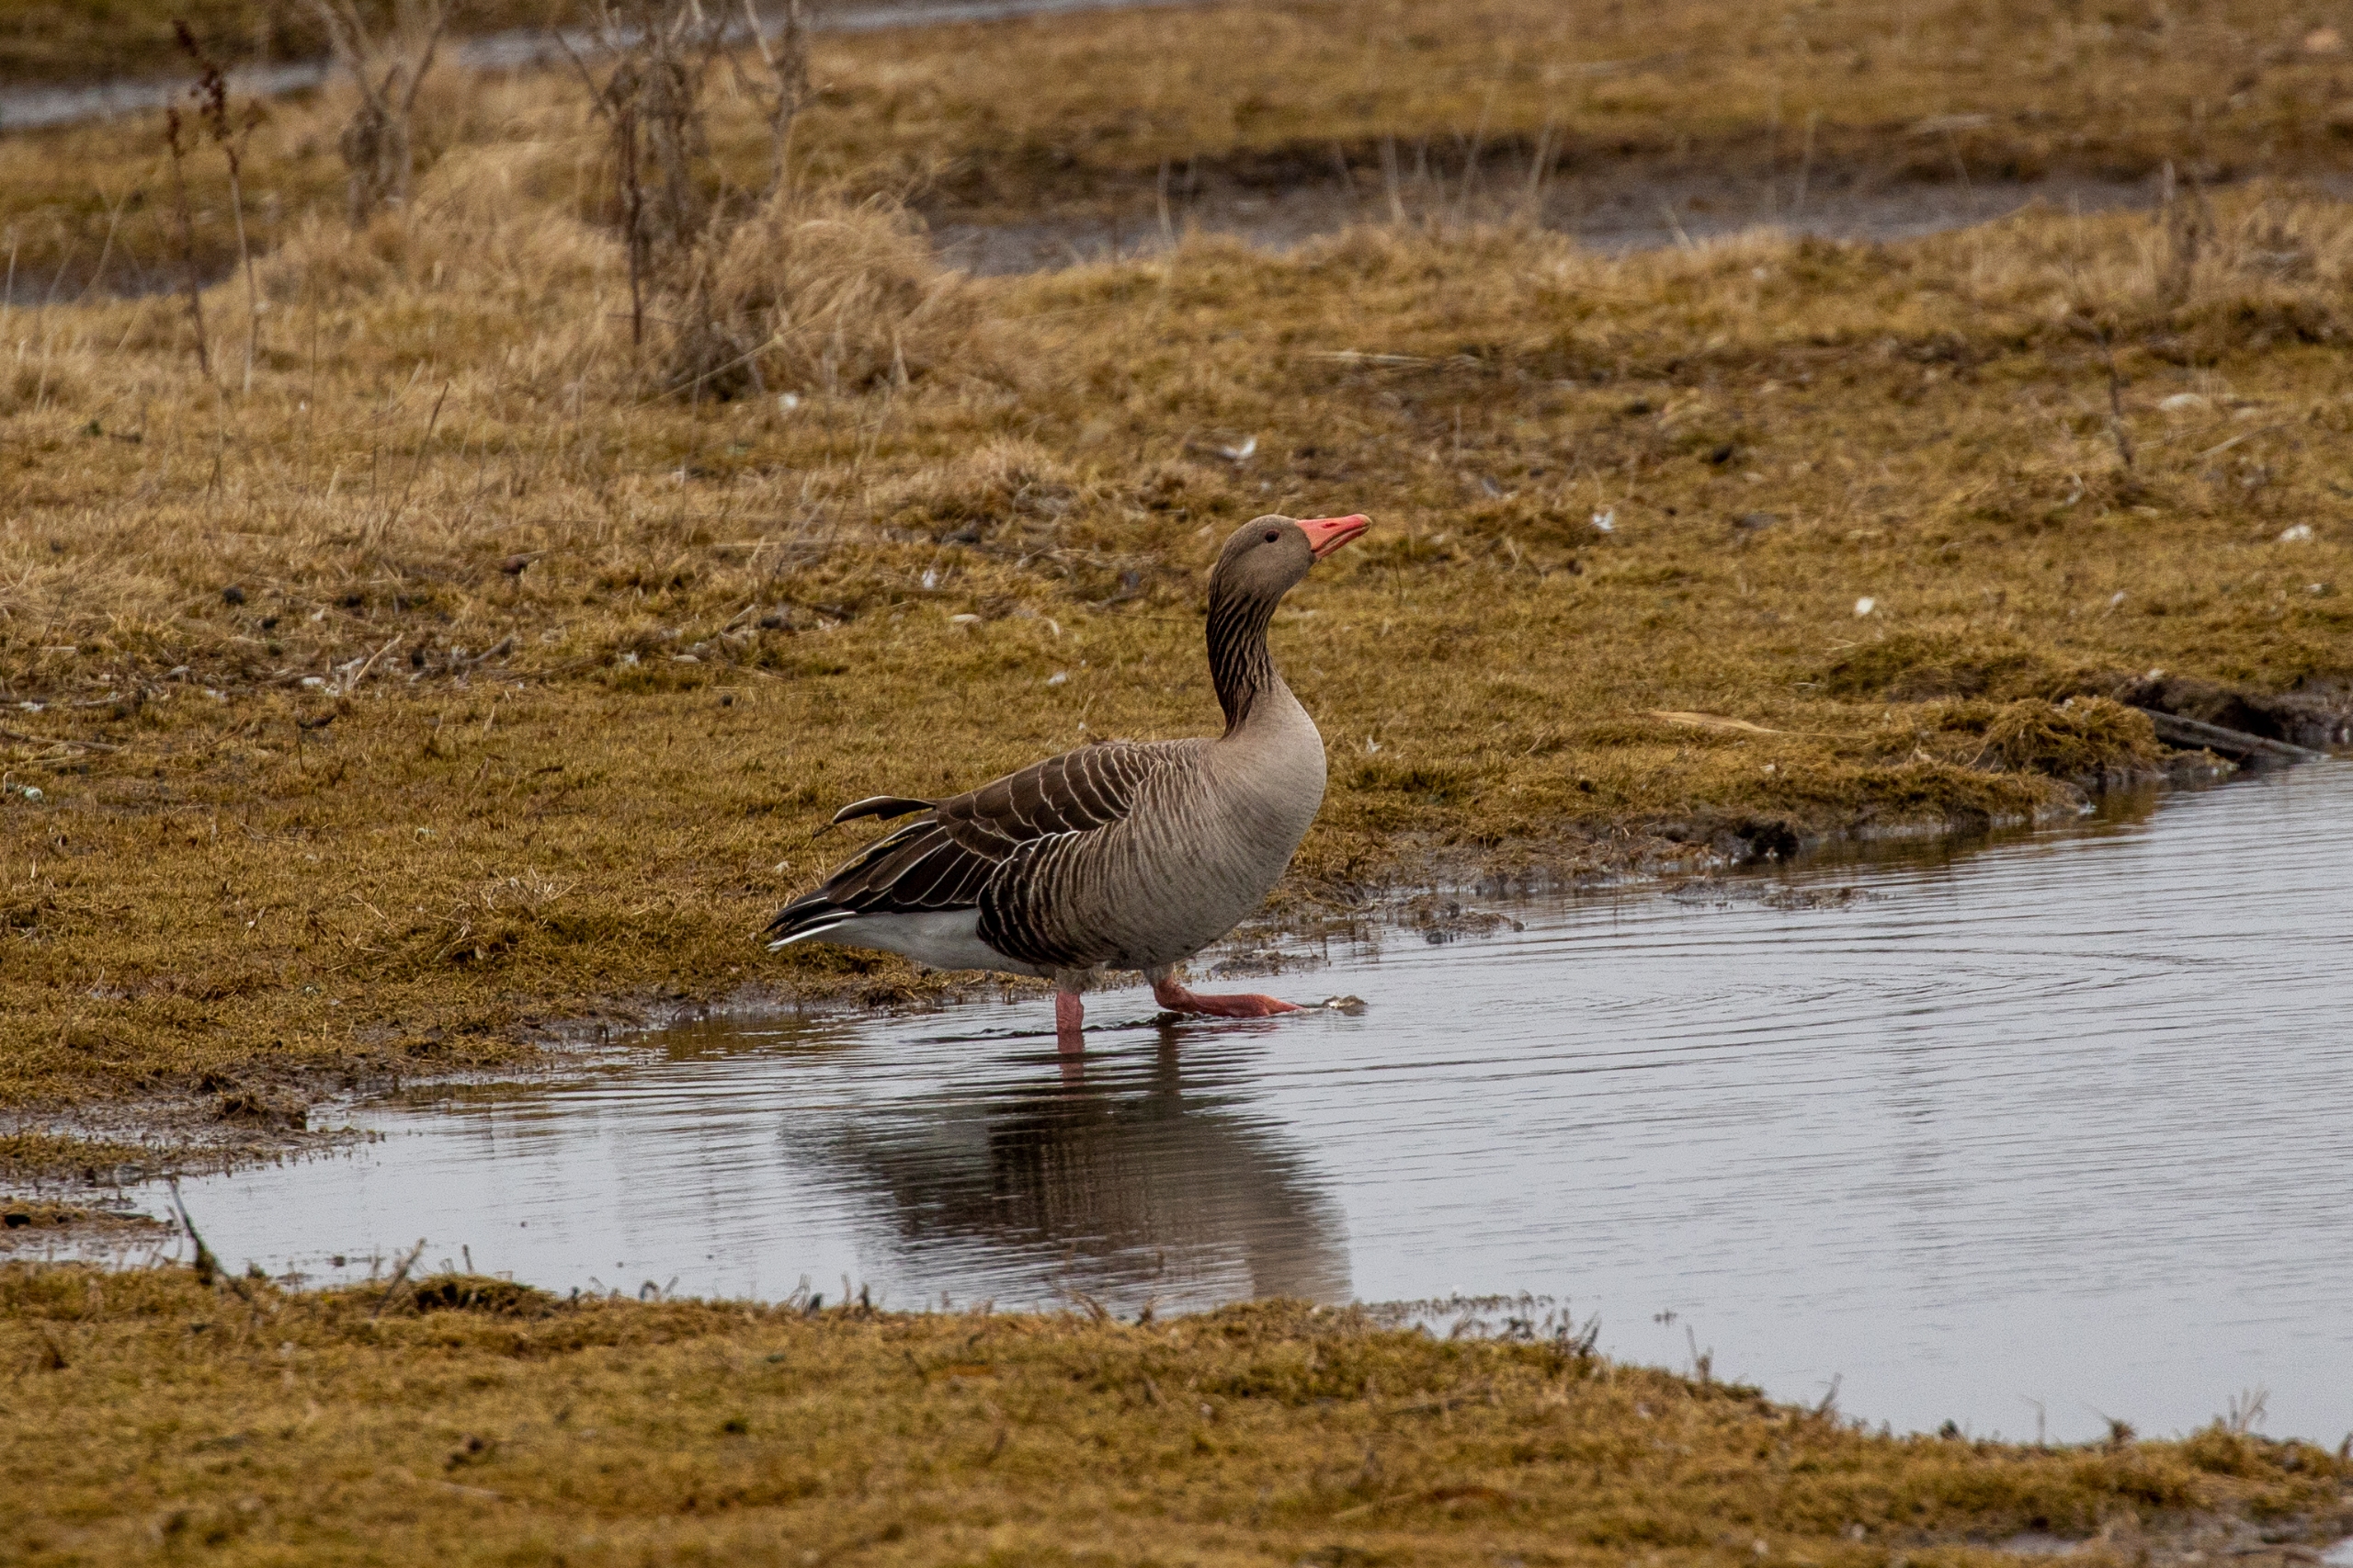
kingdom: Animalia
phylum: Chordata
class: Aves
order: Anseriformes
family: Anatidae
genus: Anser
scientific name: Anser anser
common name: Grågås
